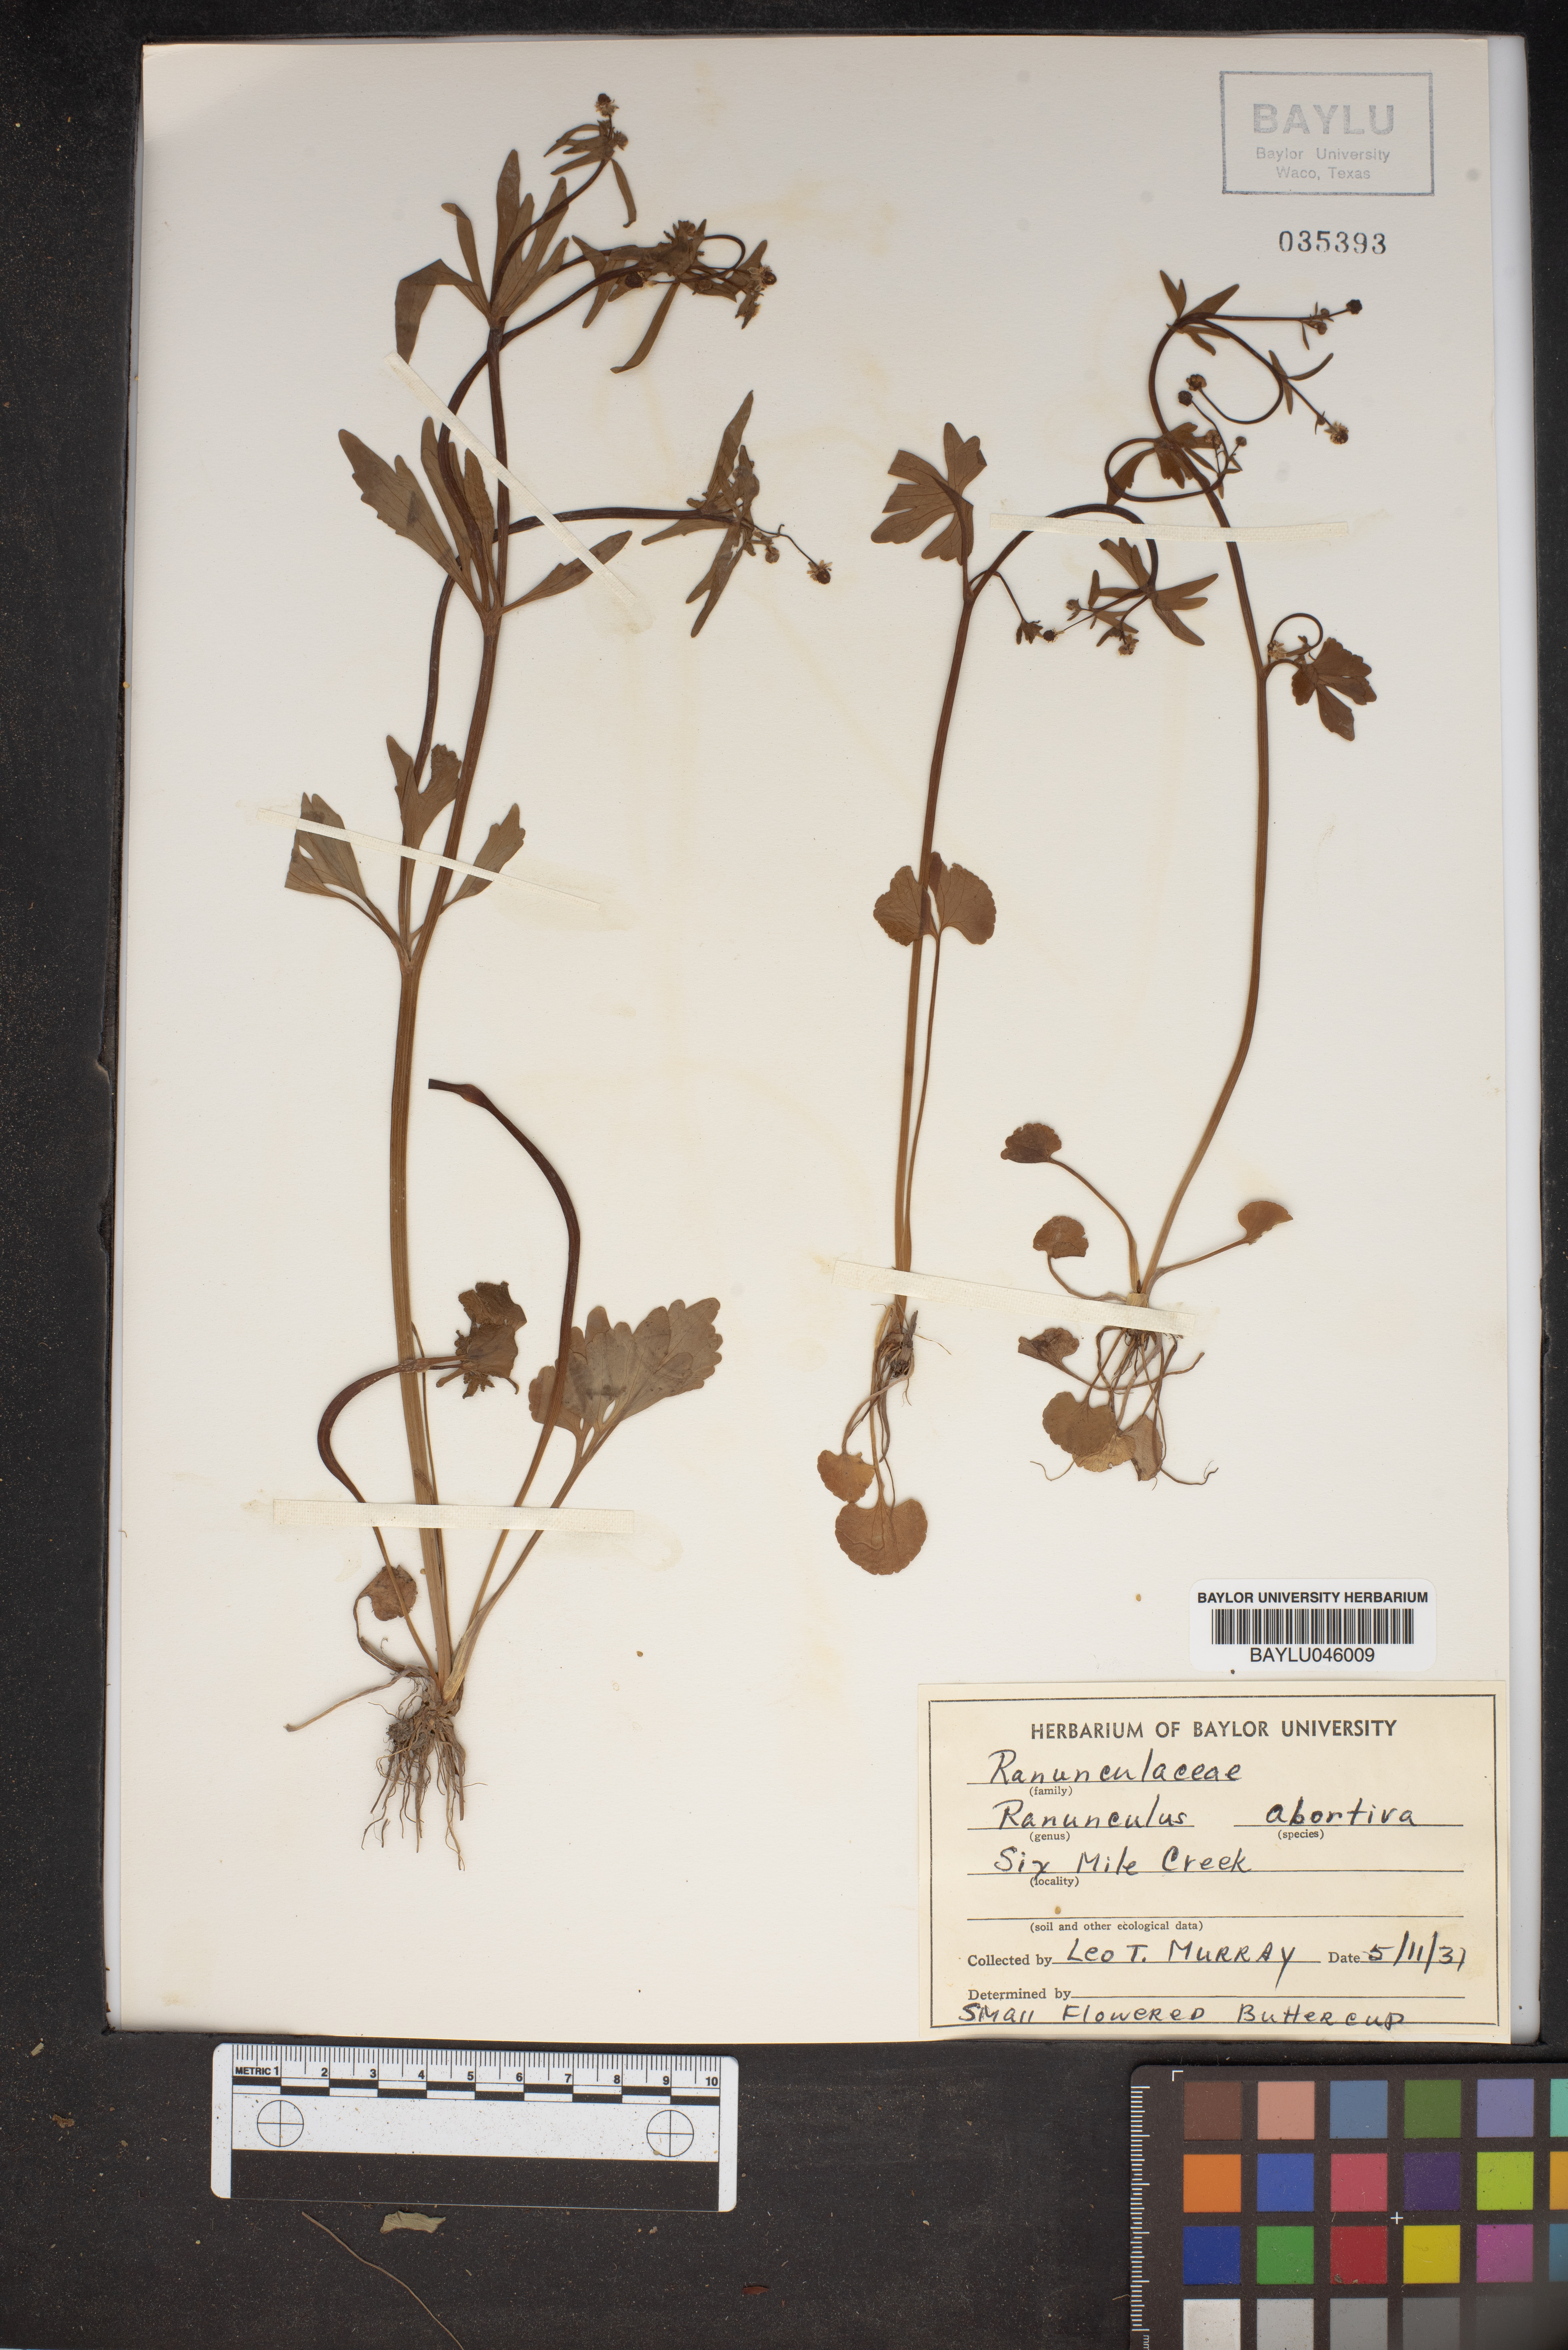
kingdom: Plantae
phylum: Tracheophyta
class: Magnoliopsida
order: Ranunculales
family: Ranunculaceae
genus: Ranunculus
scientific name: Ranunculus abortivus
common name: Early wood buttercup
